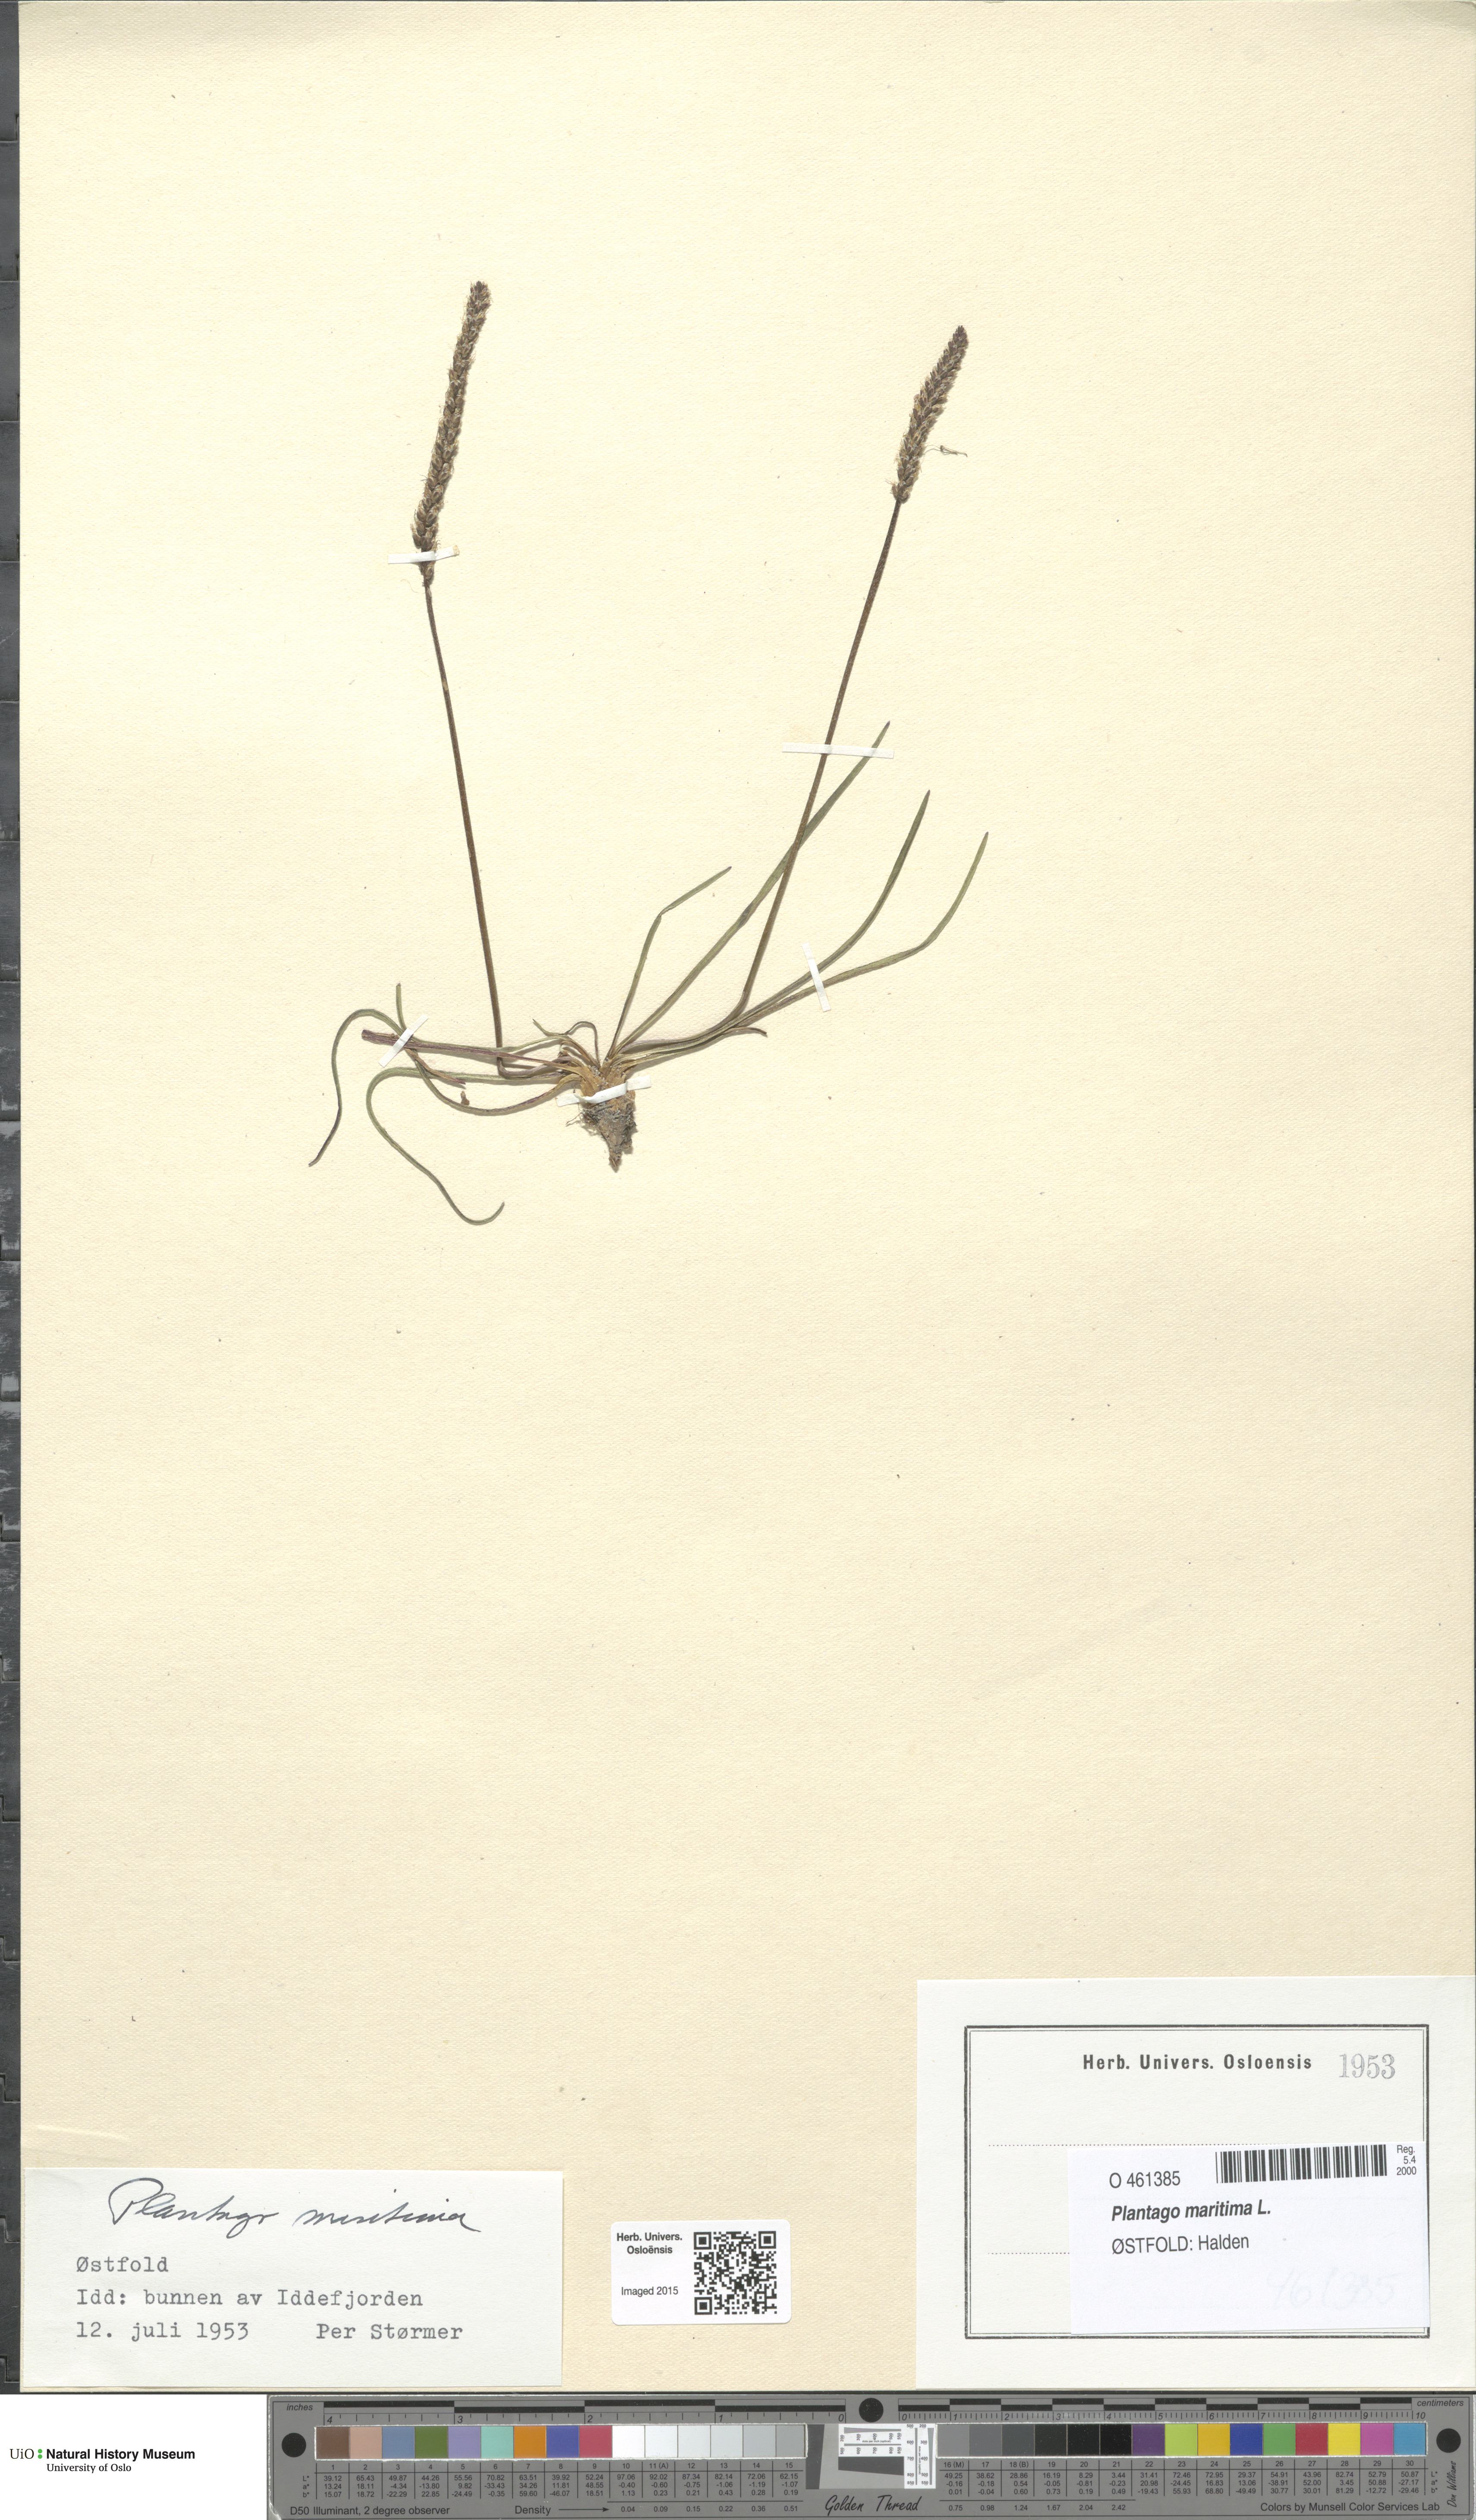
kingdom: Plantae
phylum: Tracheophyta
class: Magnoliopsida
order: Lamiales
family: Plantaginaceae
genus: Plantago
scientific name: Plantago maritima
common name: Sea plantain
